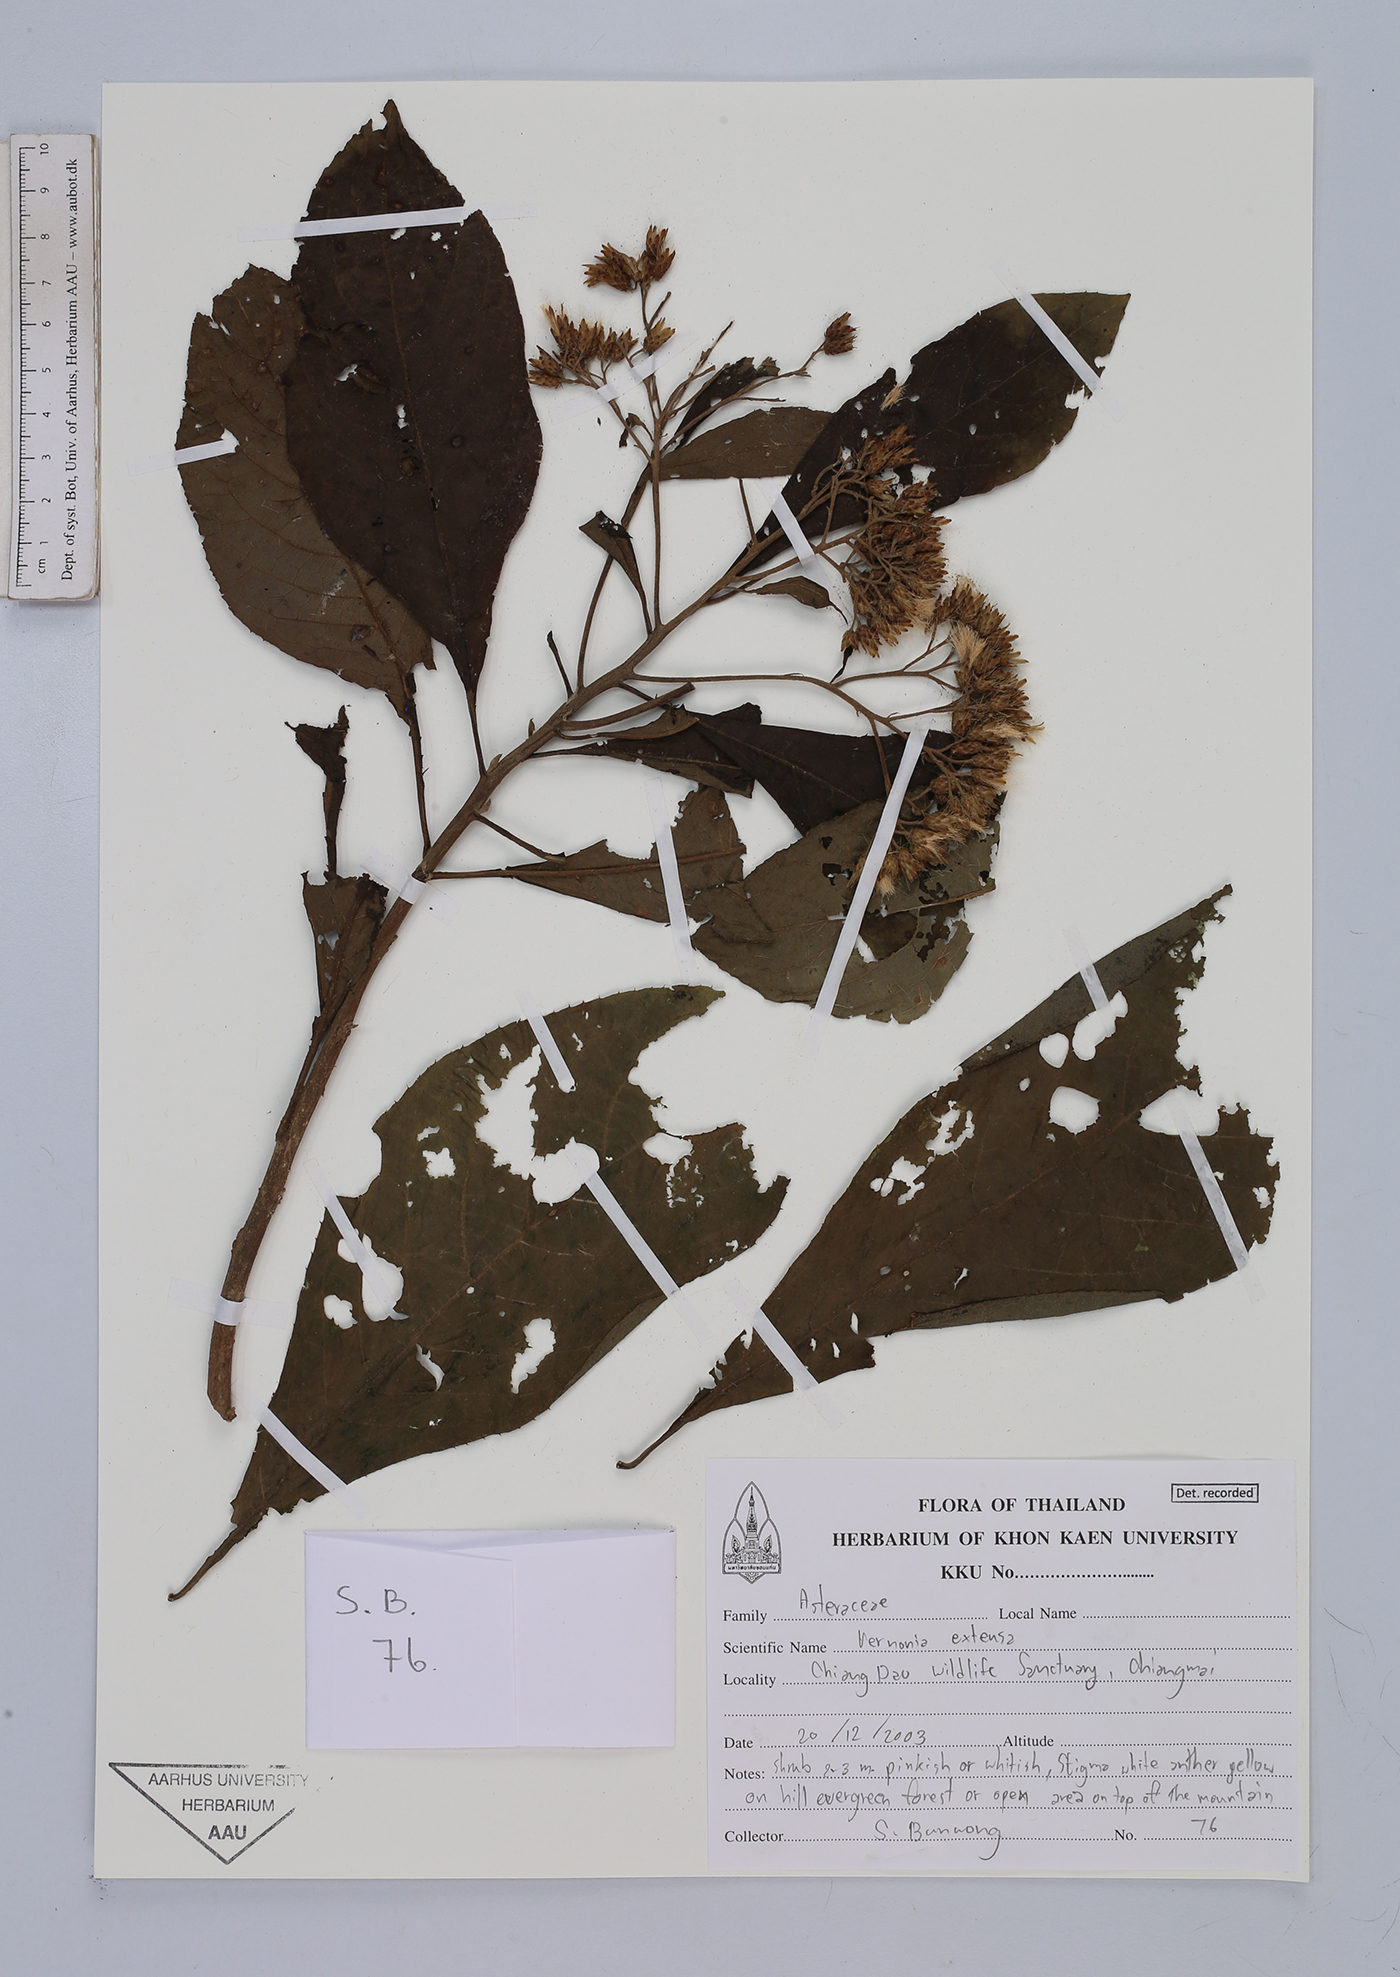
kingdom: Plantae
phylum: Tracheophyta
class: Magnoliopsida
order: Asterales
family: Asteraceae
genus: Gymnanthemum
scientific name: Gymnanthemum extensum
